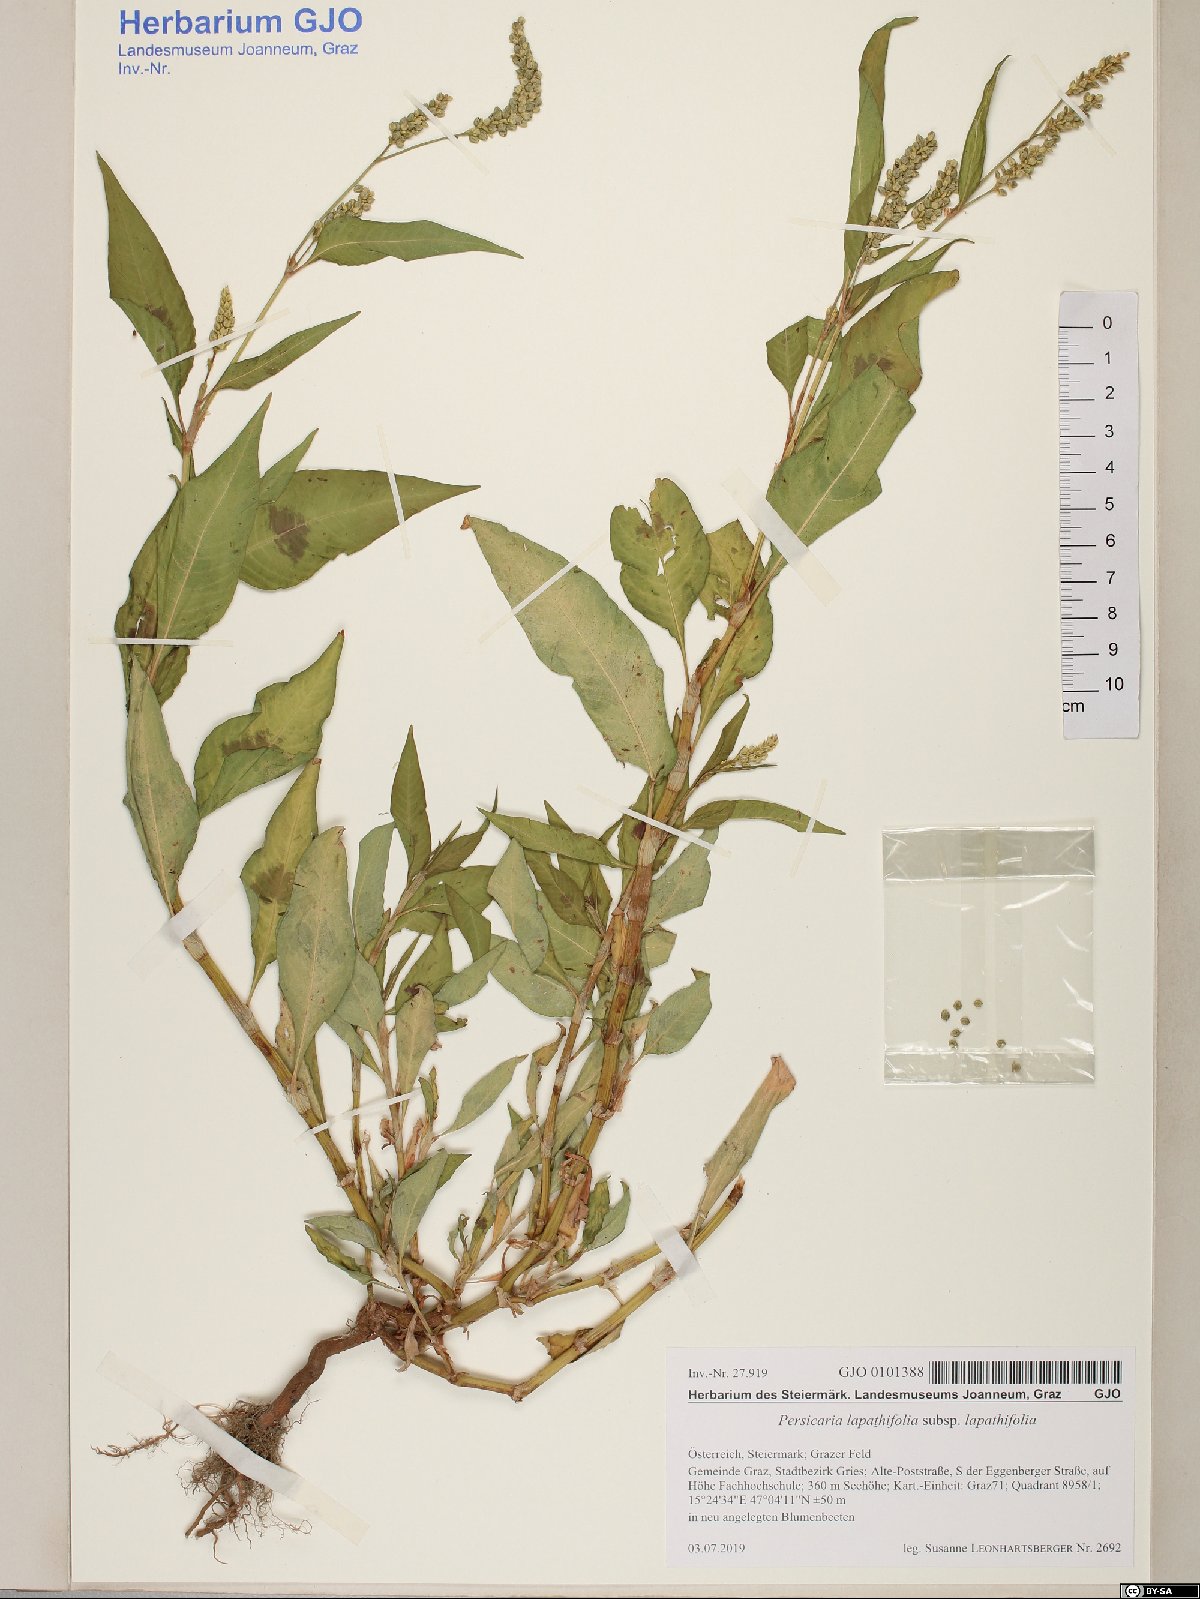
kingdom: Plantae
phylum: Tracheophyta
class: Magnoliopsida
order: Caryophyllales
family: Polygonaceae
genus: Persicaria
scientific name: Persicaria lapathifolia
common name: Curlytop knotweed
